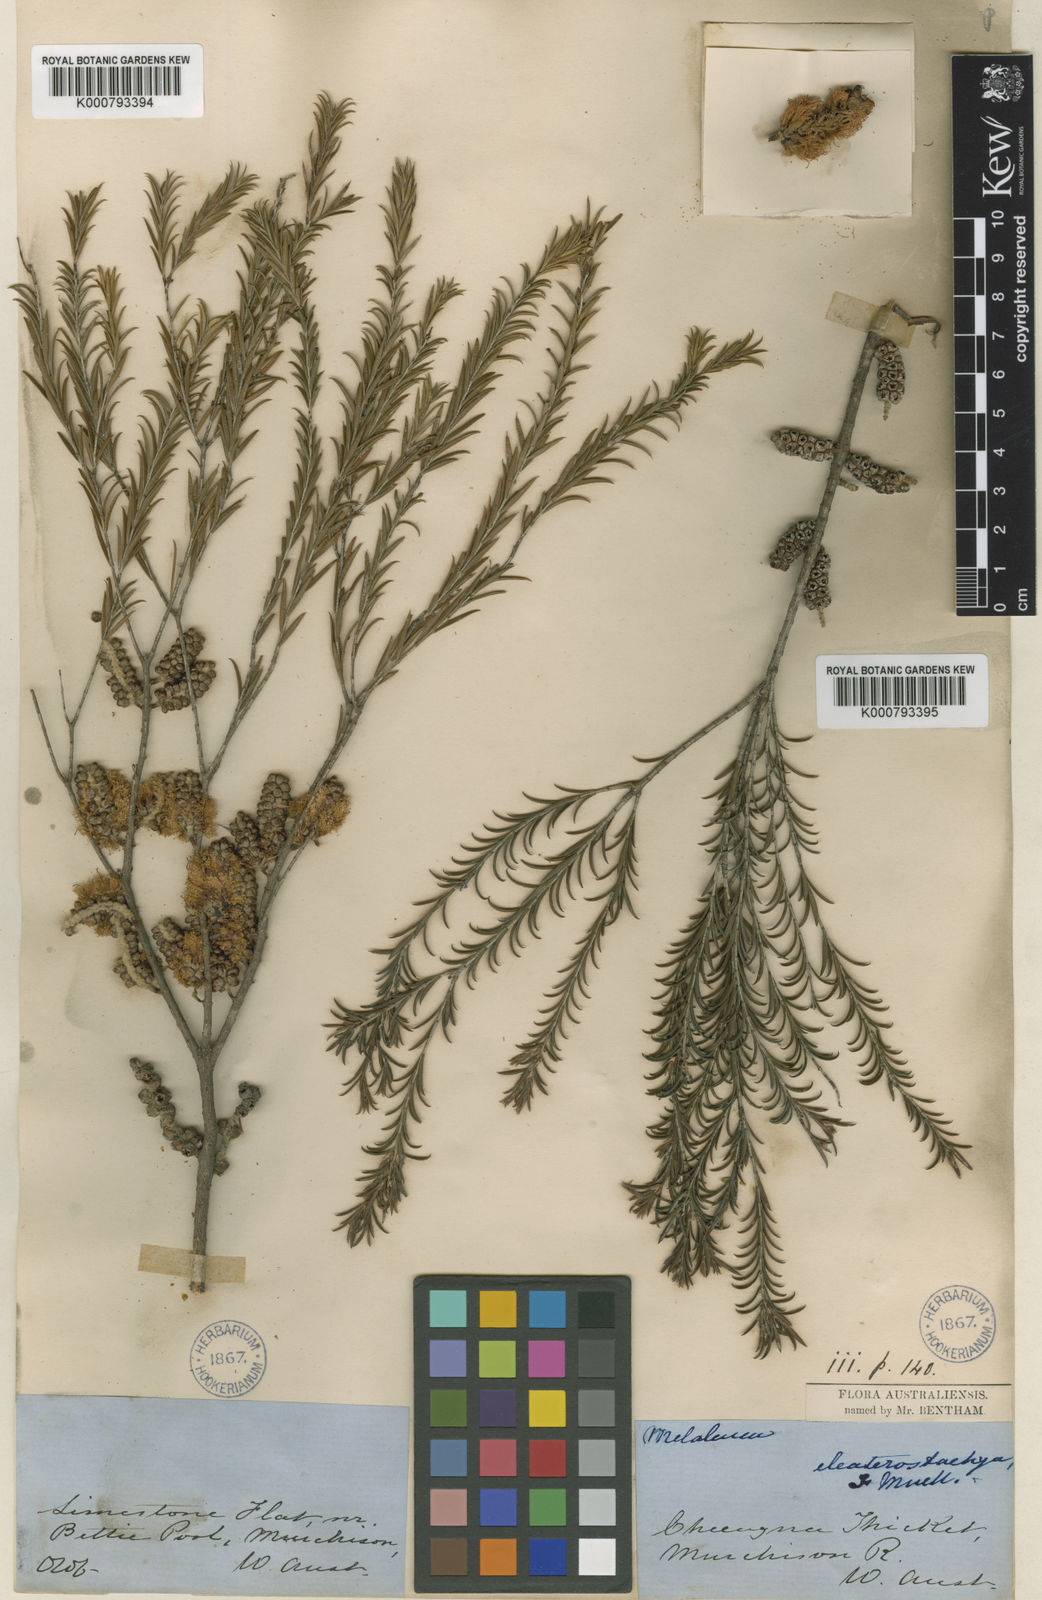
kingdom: Plantae
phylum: Tracheophyta
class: Magnoliopsida
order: Myrtales
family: Myrtaceae
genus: Melaleuca
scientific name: Melaleuca eleuterostachya
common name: Hummock honey myrtle
